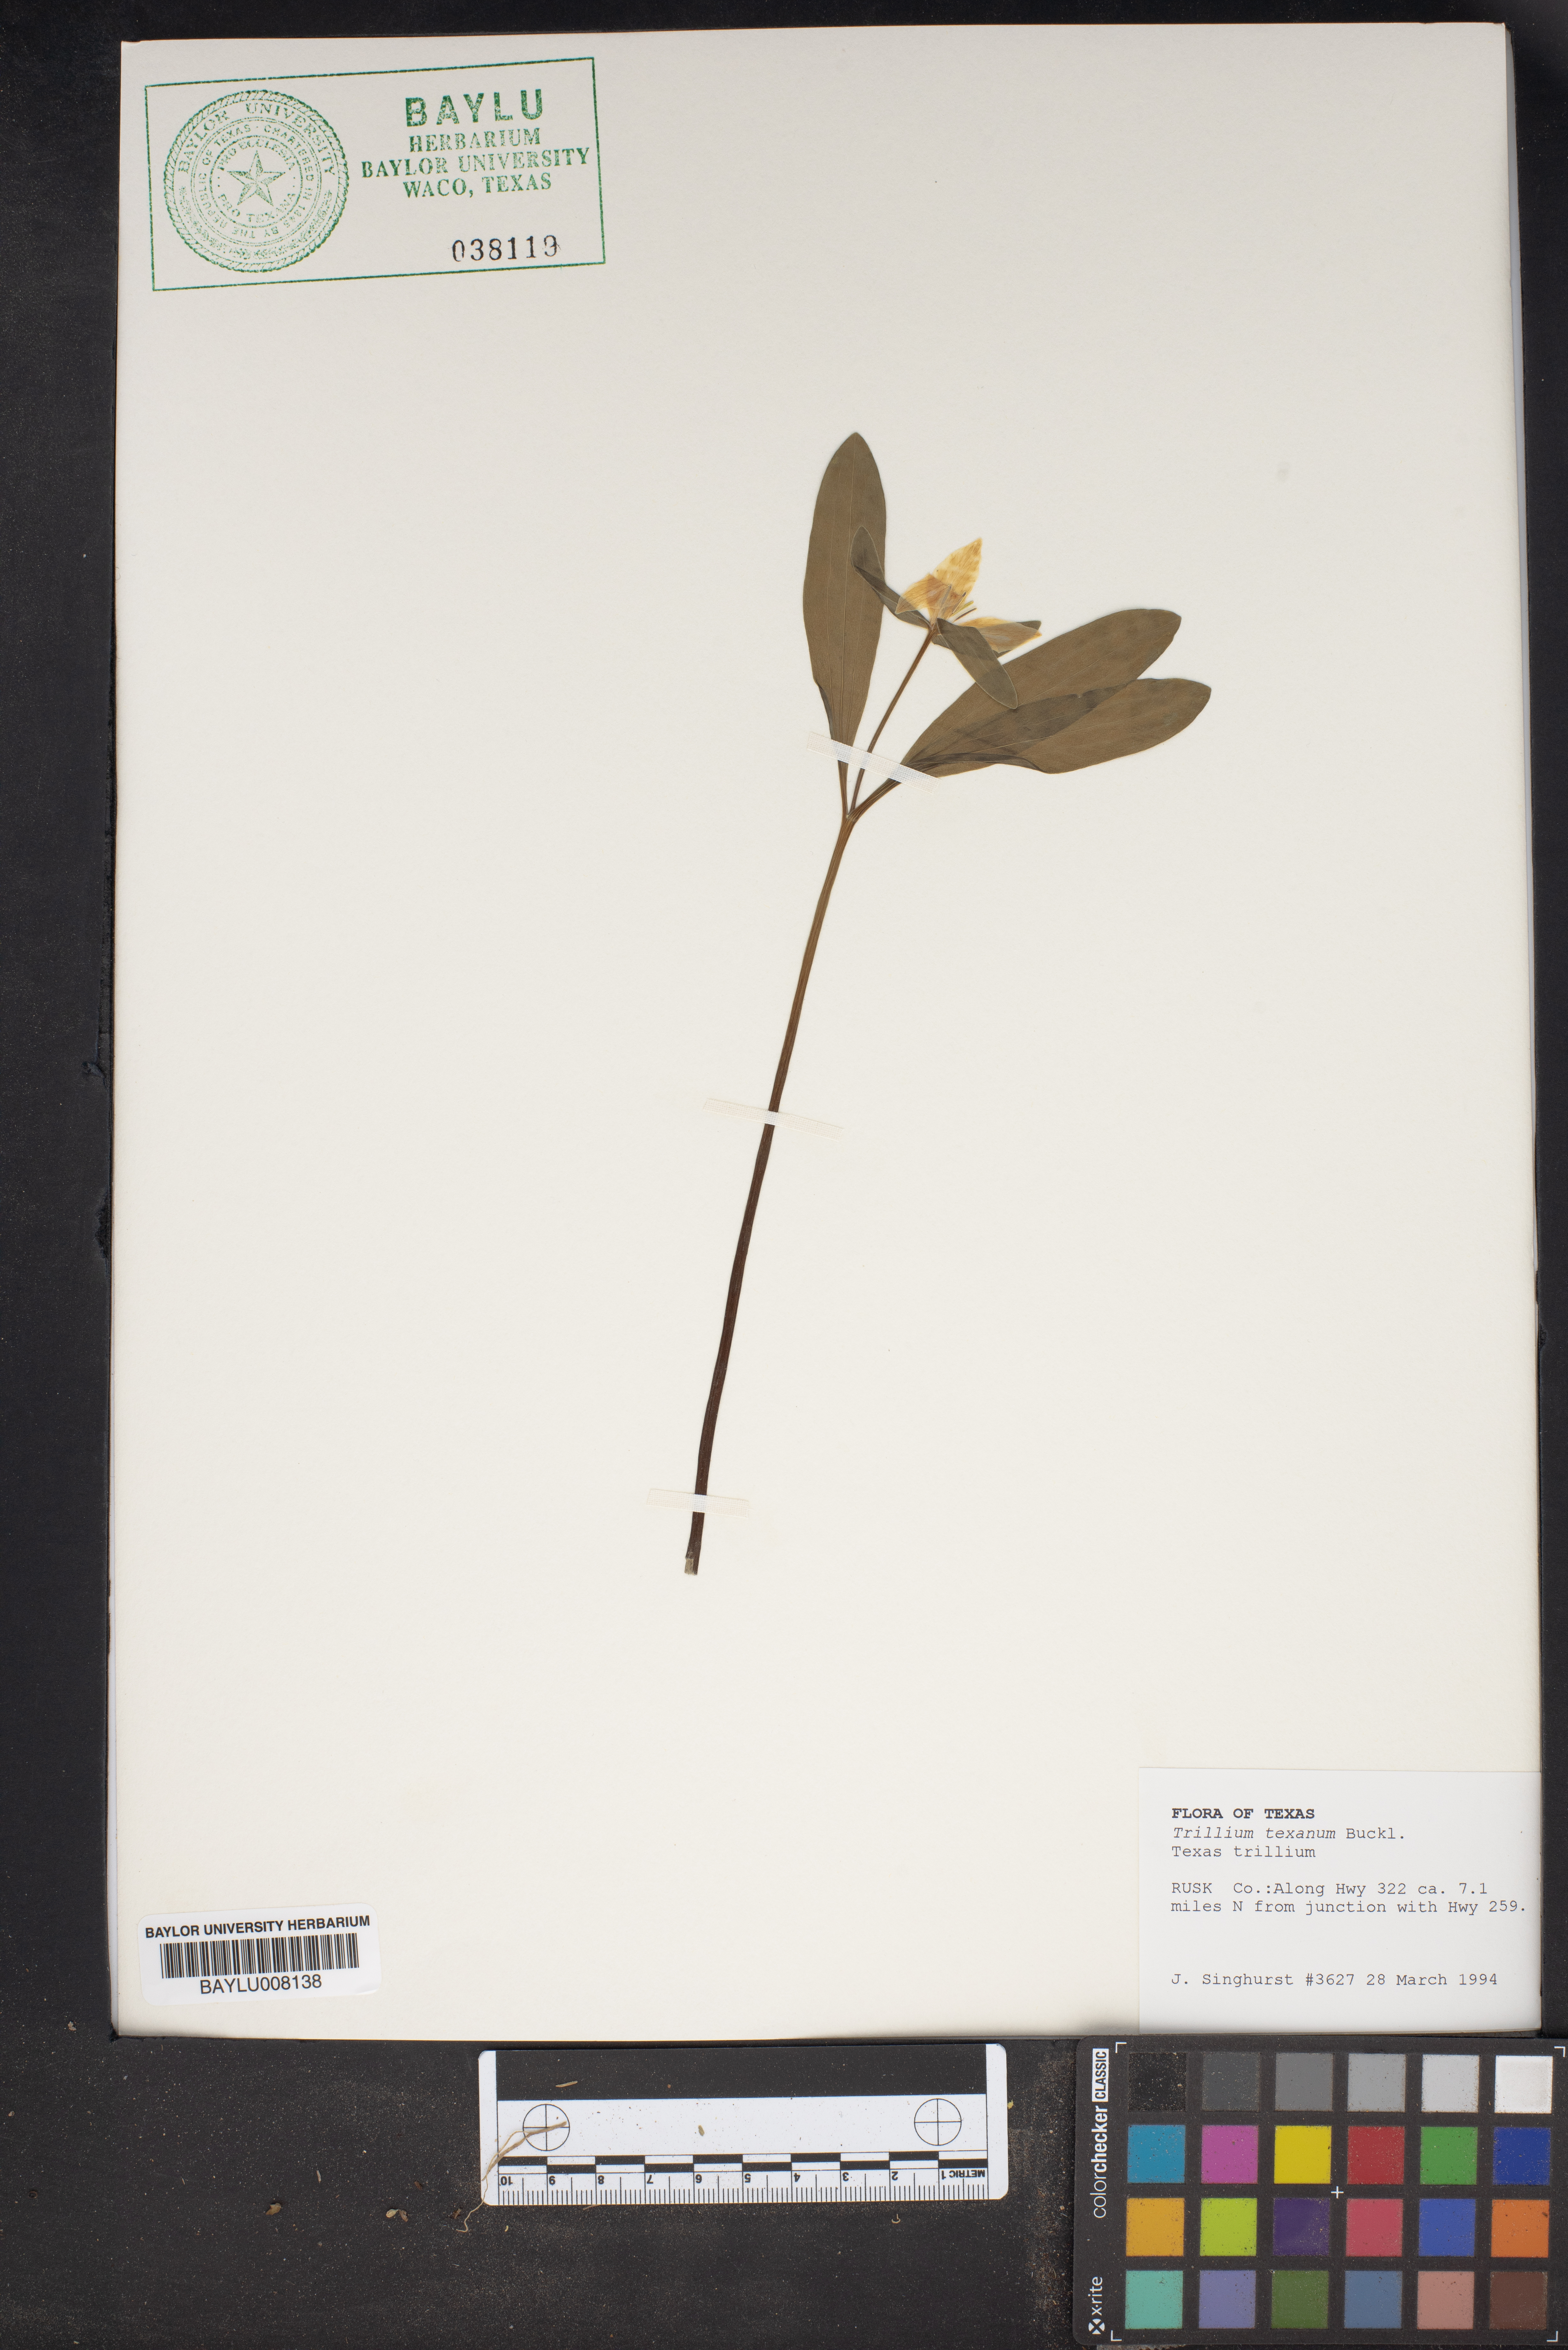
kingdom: Plantae
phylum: Tracheophyta
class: Liliopsida
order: Liliales
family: Melanthiaceae
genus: Trillium
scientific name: Trillium pusillum
